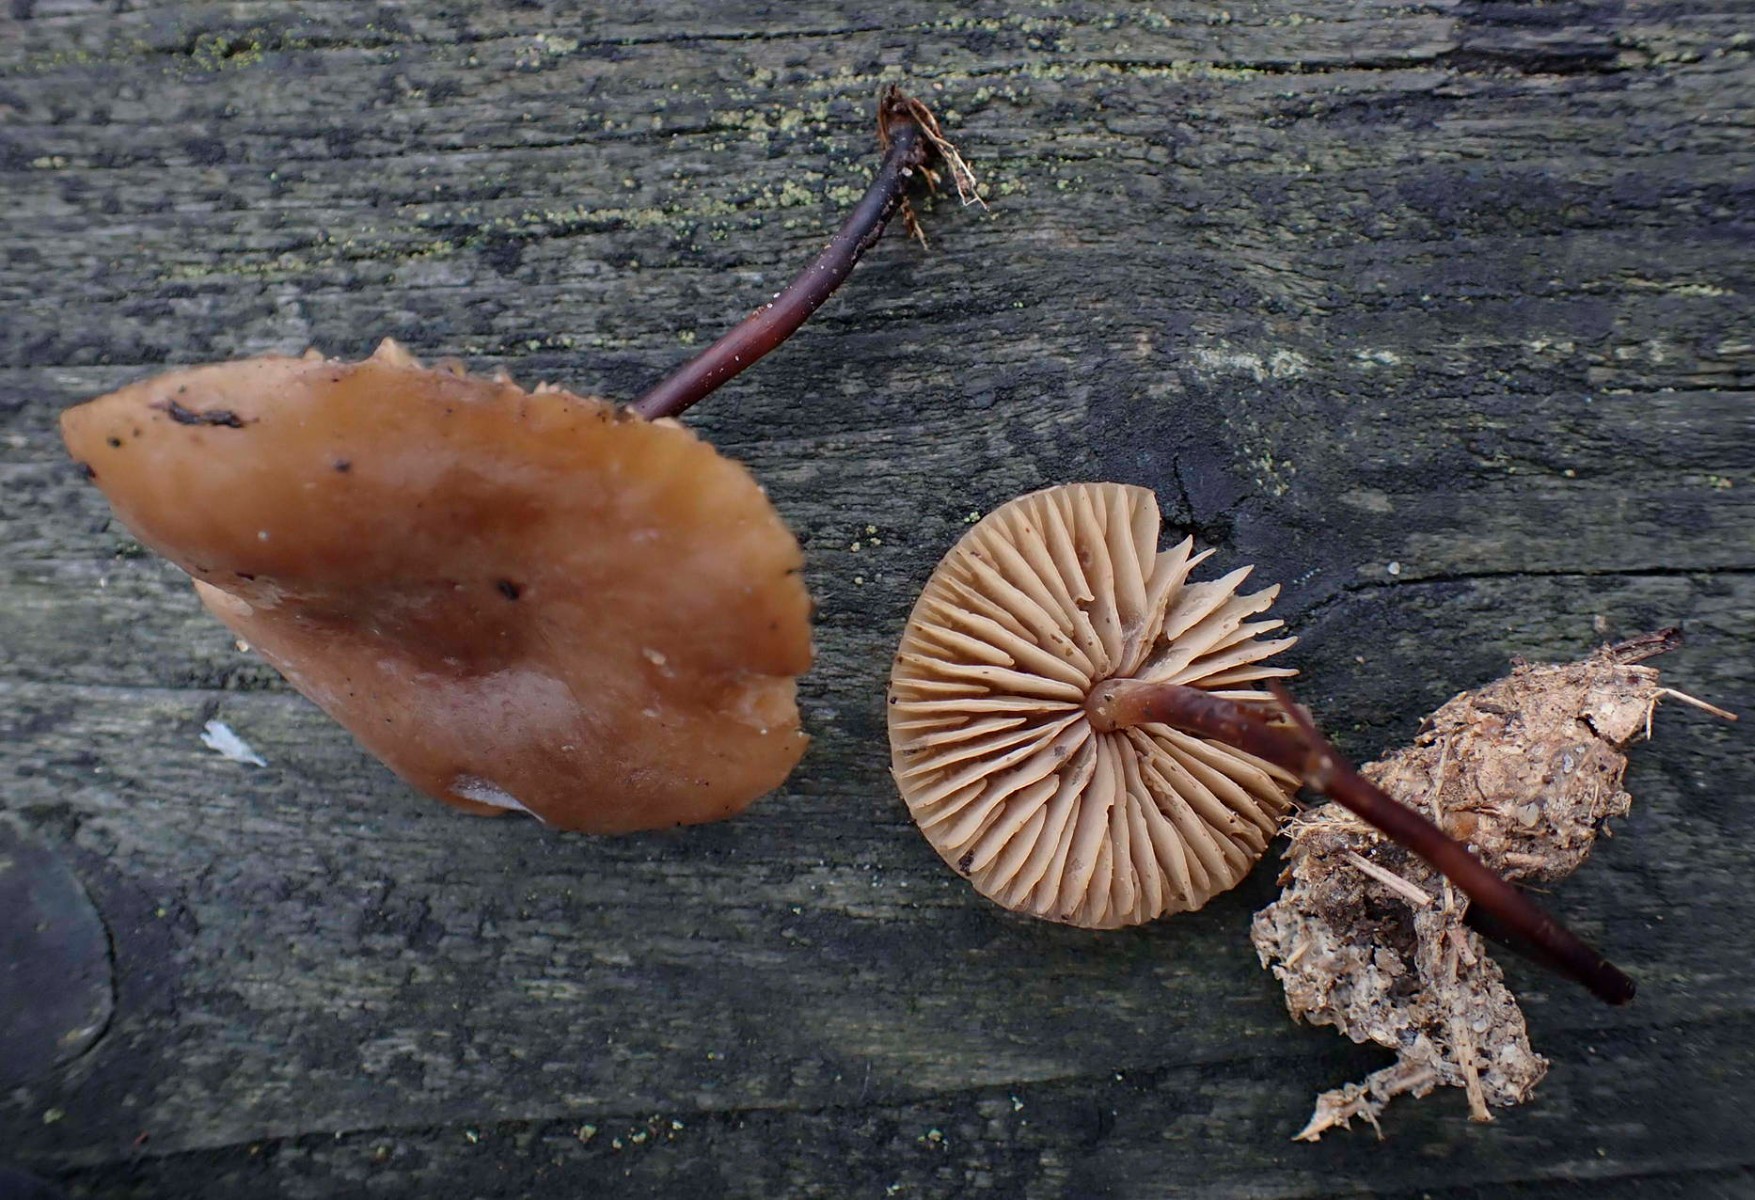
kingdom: Fungi
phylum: Basidiomycota
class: Agaricomycetes
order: Agaricales
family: Marasmiaceae
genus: Marasmius
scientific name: Marasmius cohaerens
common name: hornstokket bruskhat
